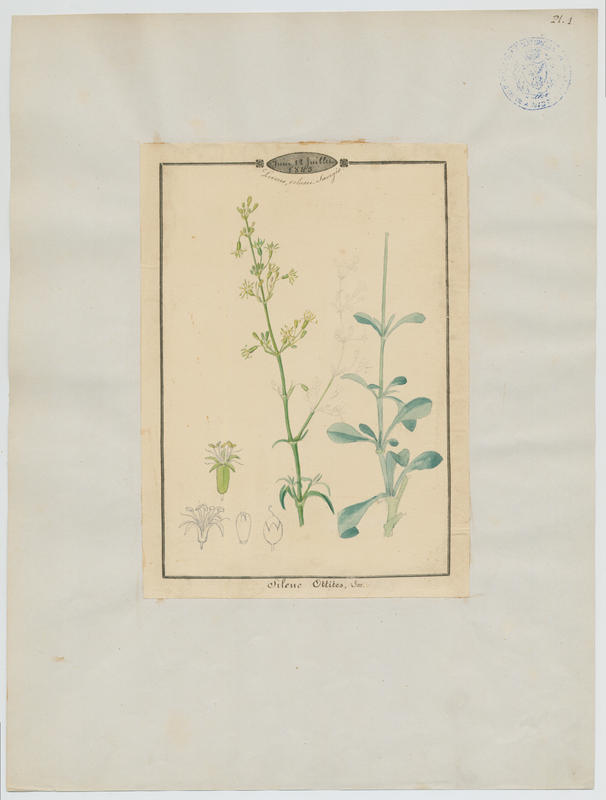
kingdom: Plantae
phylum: Tracheophyta
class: Magnoliopsida
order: Caryophyllales
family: Caryophyllaceae
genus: Silene
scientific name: Silene otites
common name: Spanish catchfly
